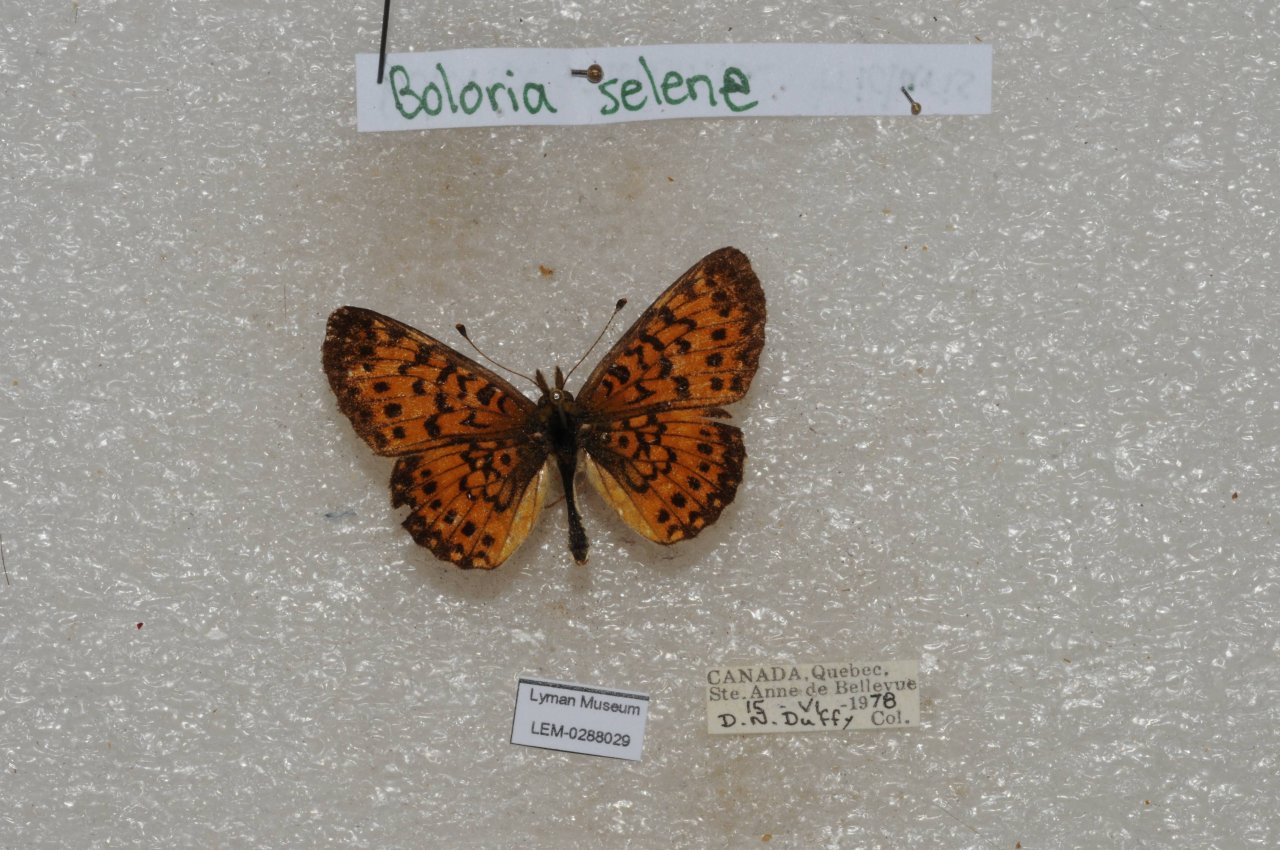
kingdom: Animalia
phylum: Arthropoda
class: Insecta
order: Lepidoptera
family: Nymphalidae
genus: Boloria
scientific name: Boloria selene
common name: Silver-bordered Fritillary
